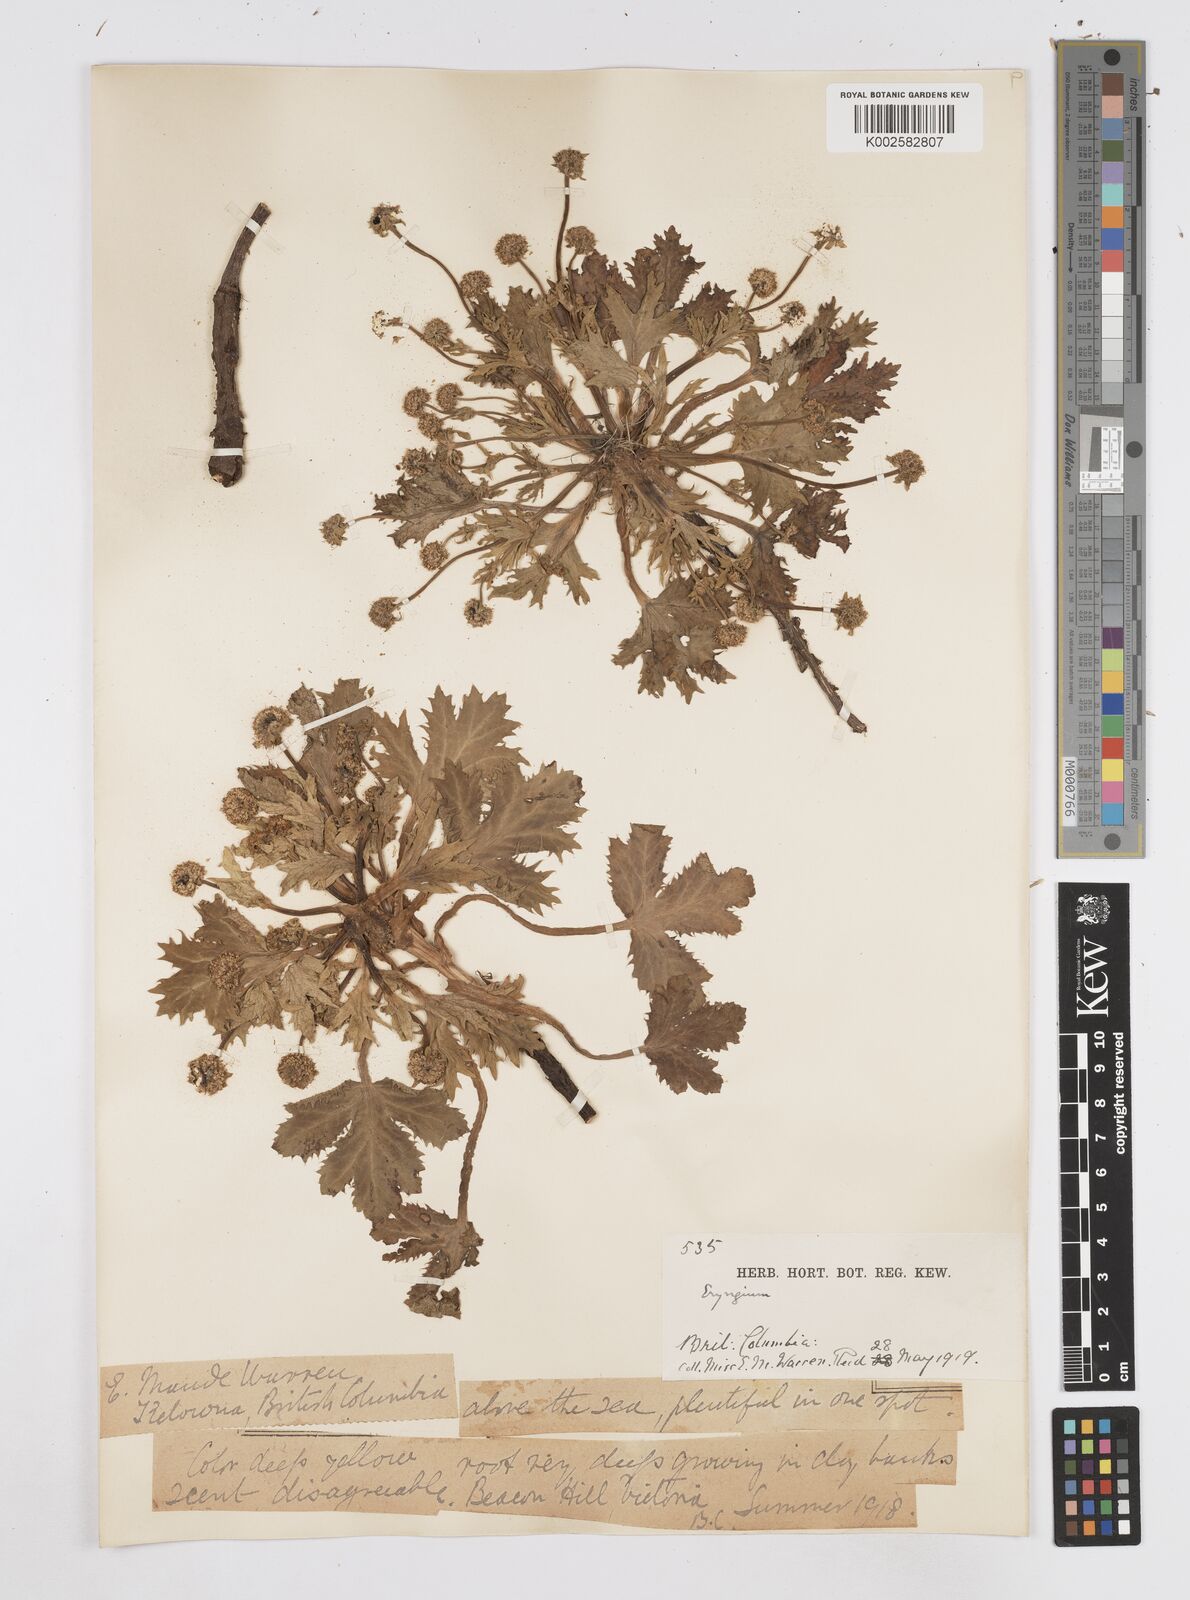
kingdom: Plantae
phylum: Tracheophyta
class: Magnoliopsida
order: Apiales
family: Apiaceae
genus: Eryngium
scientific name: Eryngium
